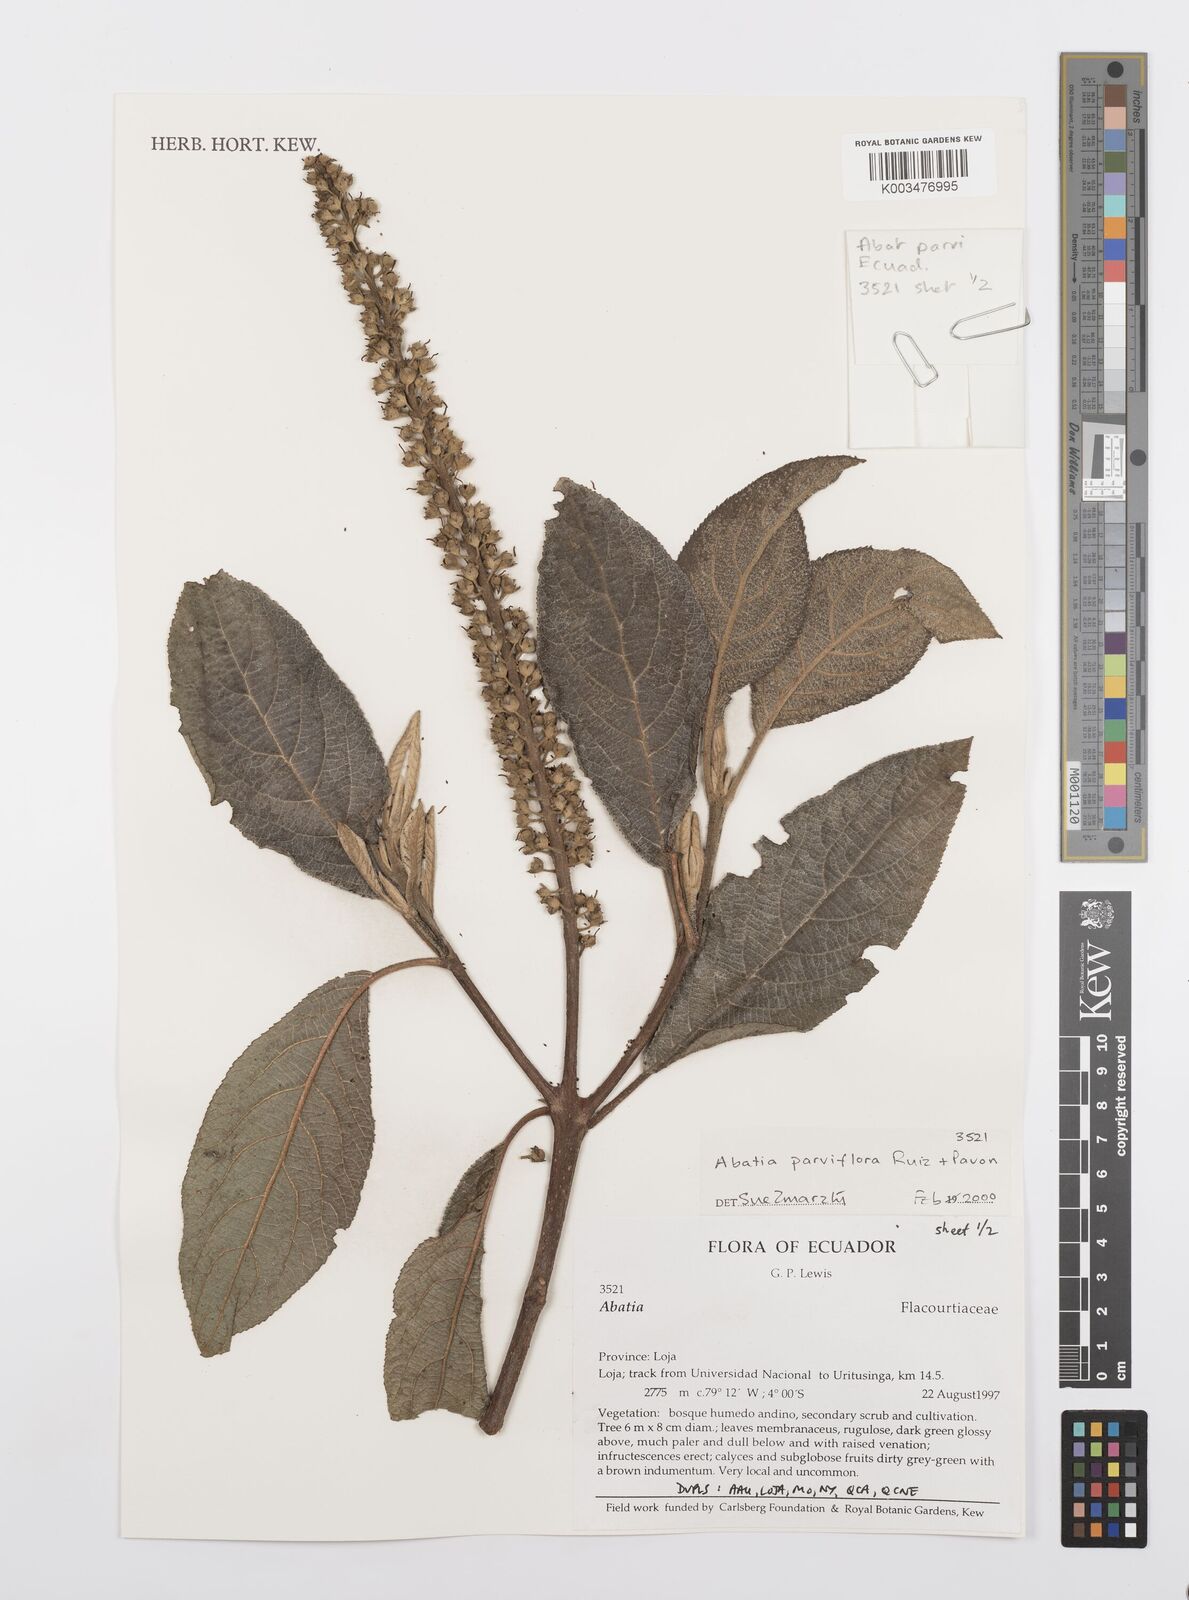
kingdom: Plantae
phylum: Tracheophyta
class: Magnoliopsida
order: Malpighiales
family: Salicaceae
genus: Abatia
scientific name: Abatia parviflora
